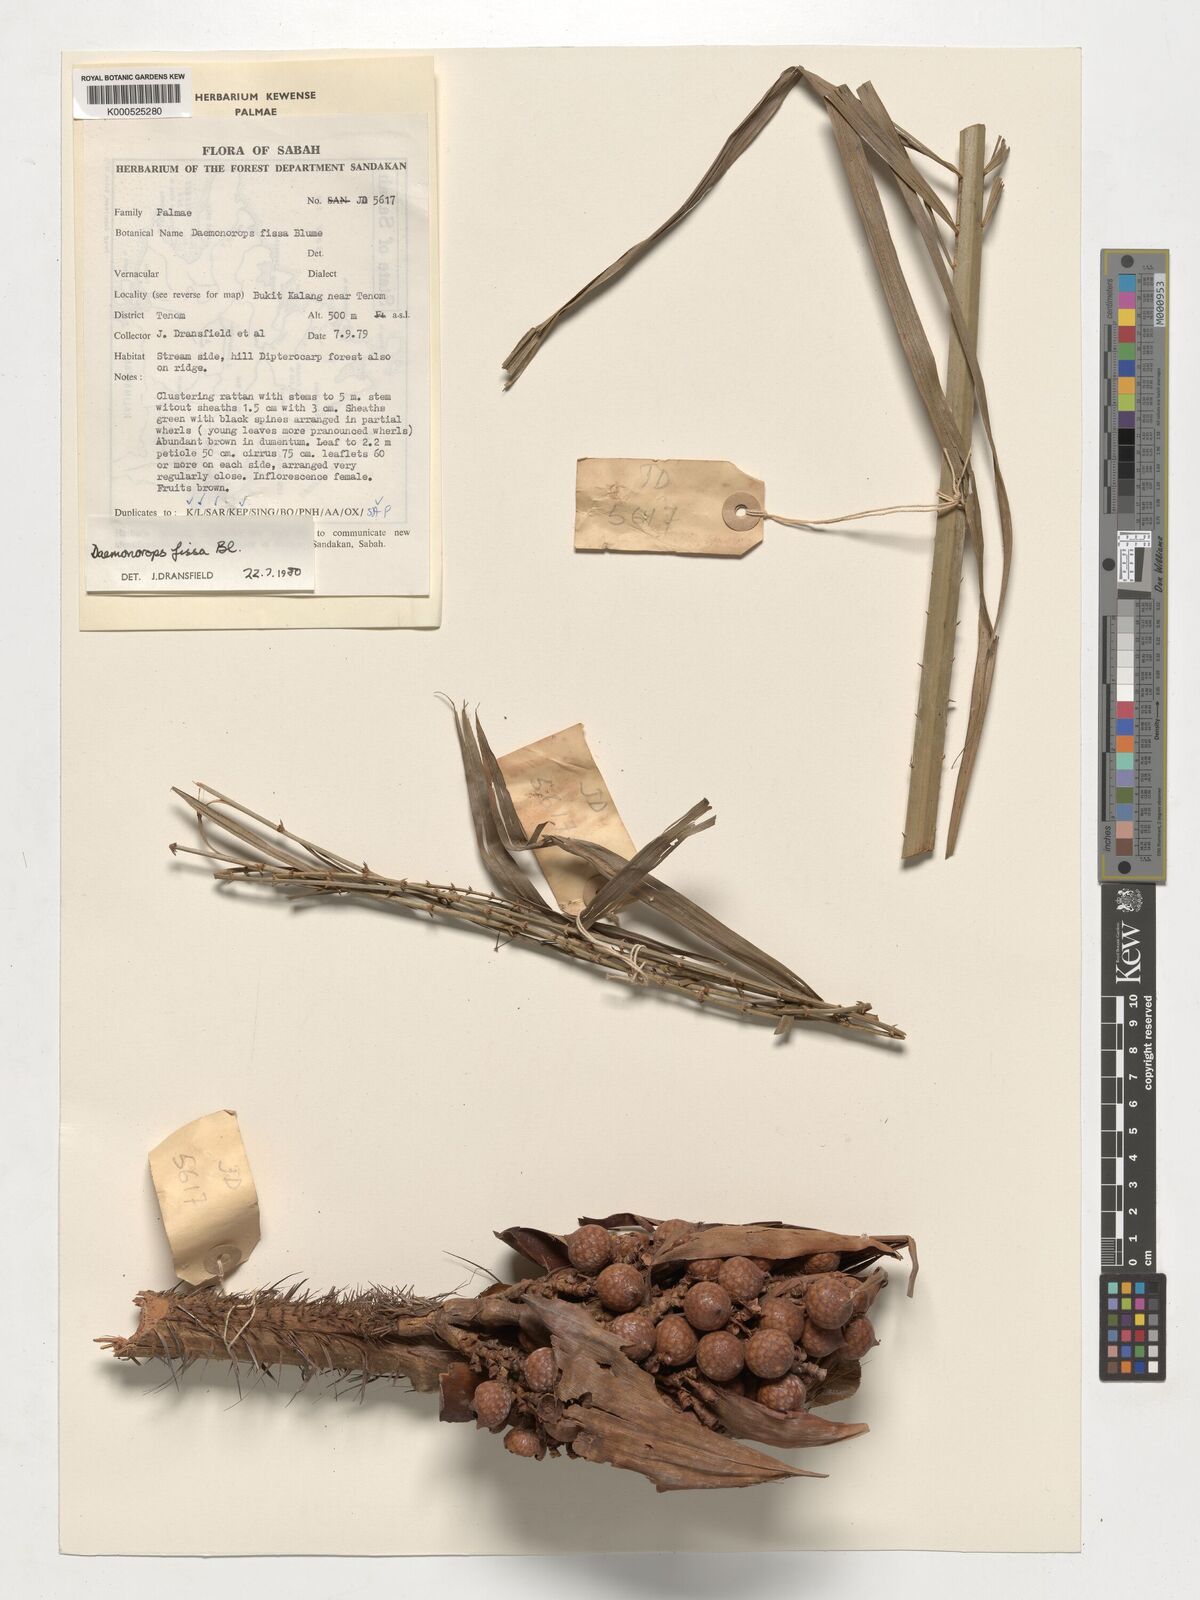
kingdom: Plantae
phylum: Tracheophyta
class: Liliopsida
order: Arecales
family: Arecaceae
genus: Calamus
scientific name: Calamus melanochaetes
